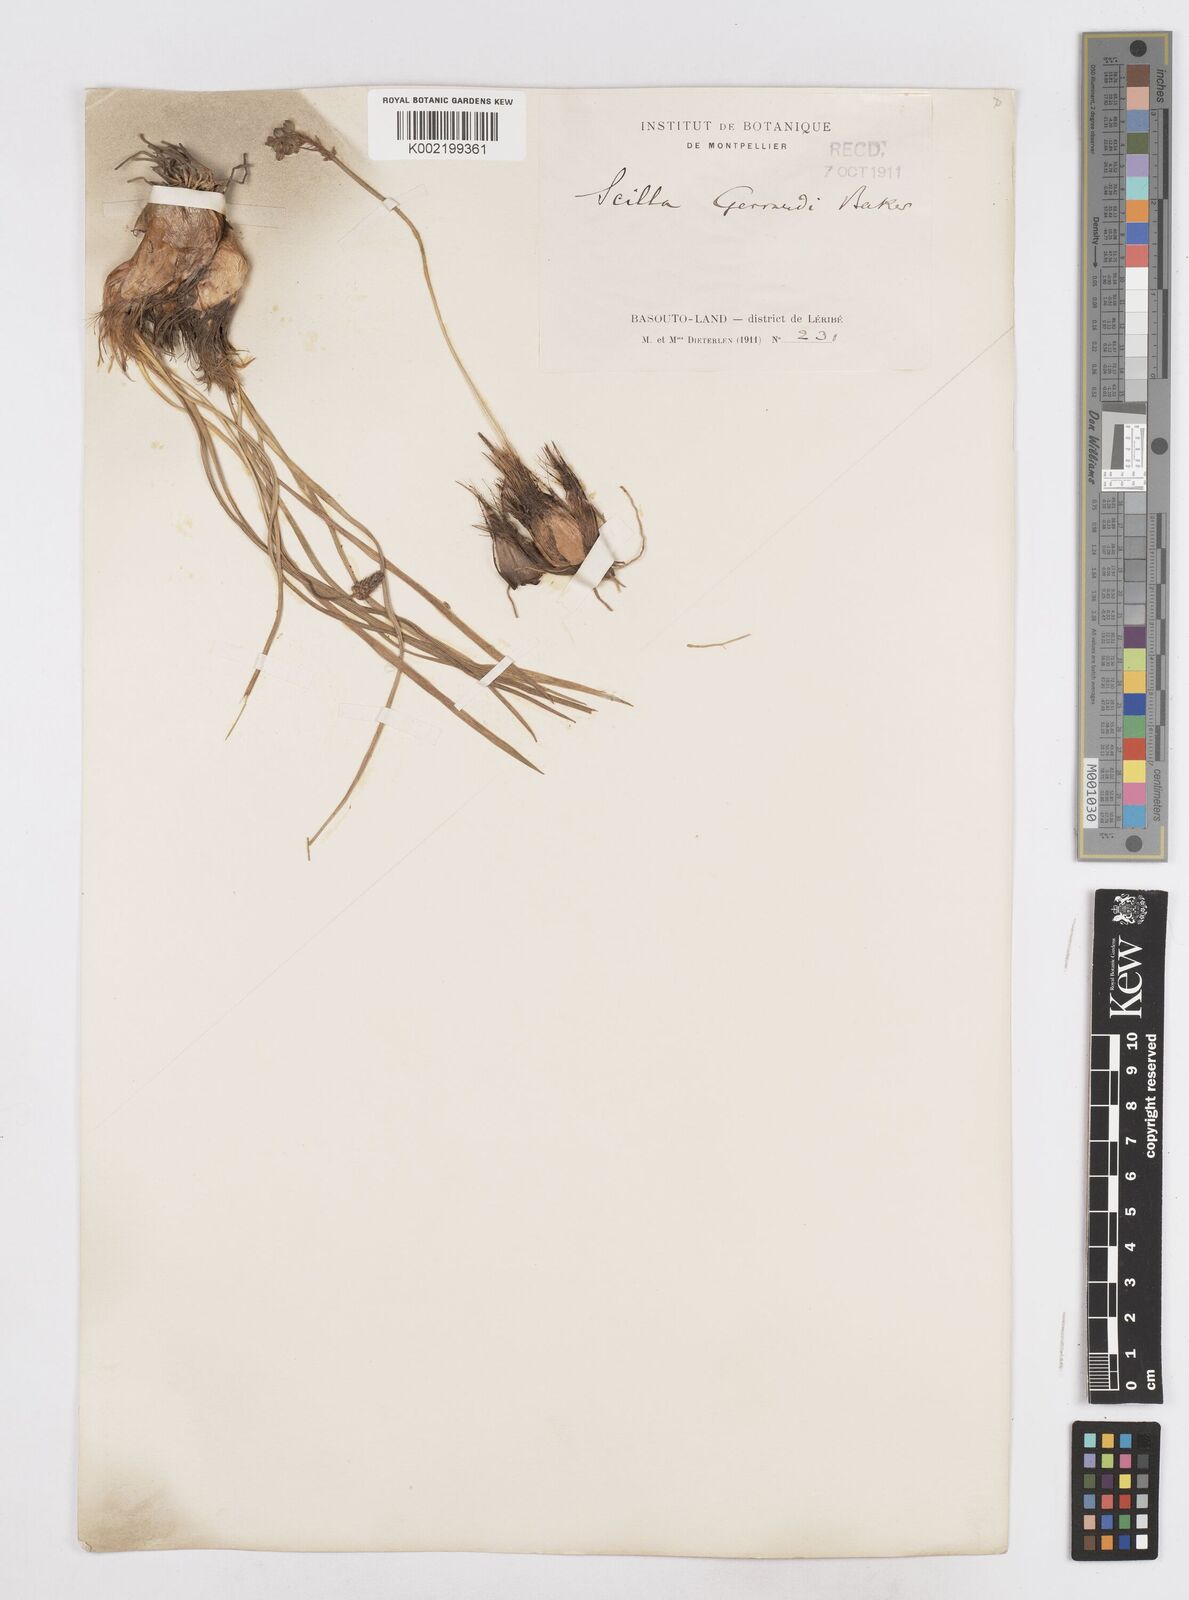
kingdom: Plantae
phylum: Tracheophyta
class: Liliopsida
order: Asparagales
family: Asparagaceae
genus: Schizocarphus
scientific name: Schizocarphus nervosus
